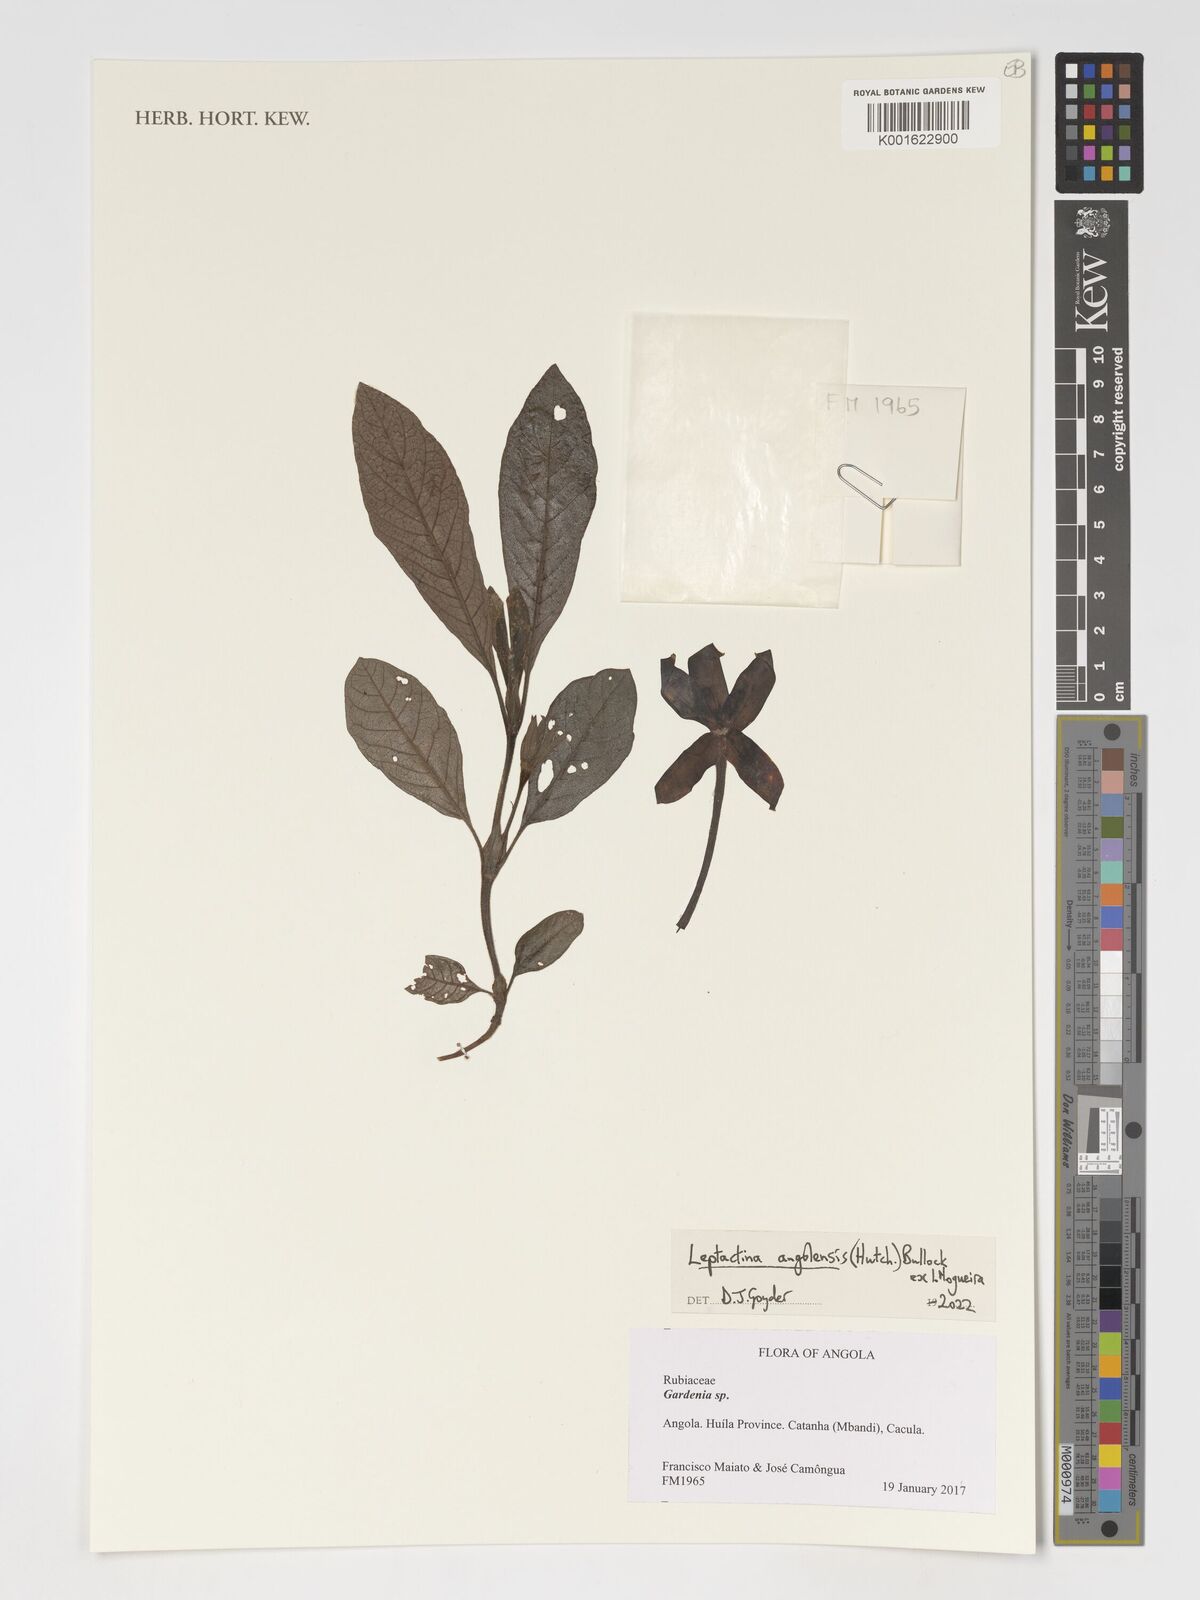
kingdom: Plantae
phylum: Tracheophyta
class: Magnoliopsida
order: Gentianales
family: Rubiaceae
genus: Leptactina
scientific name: Leptactina angolensis
